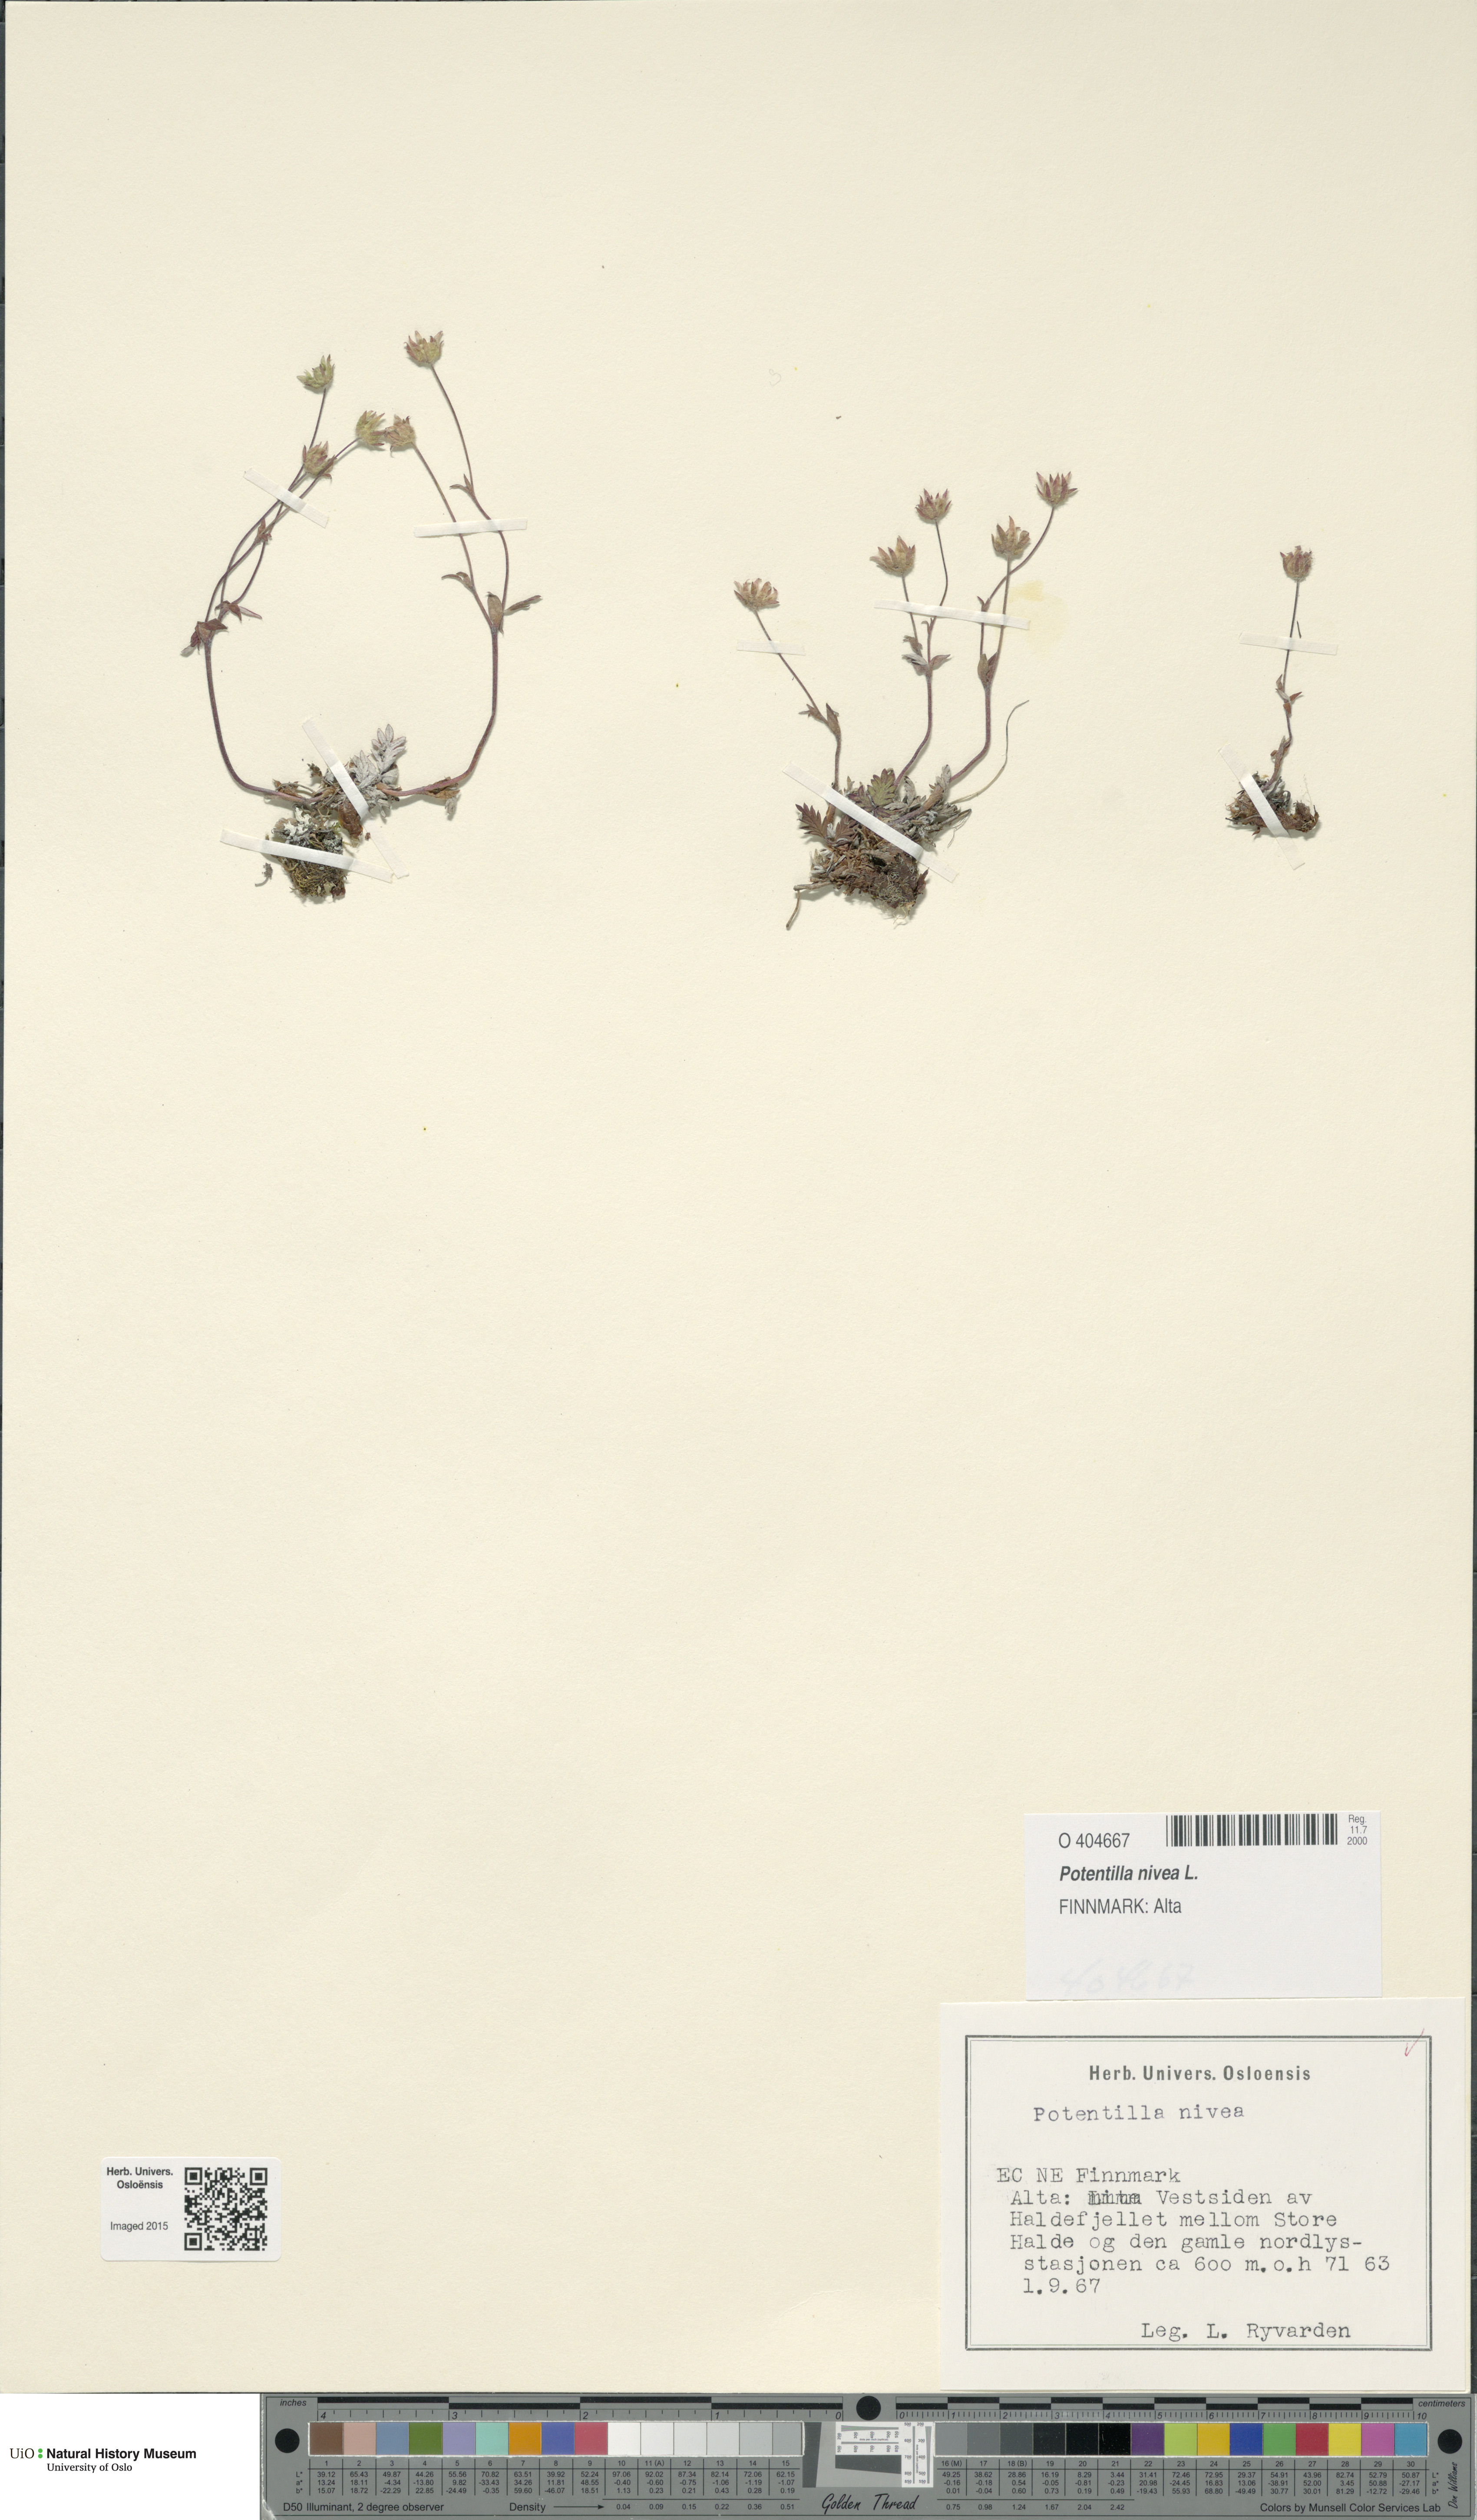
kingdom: Plantae
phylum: Tracheophyta
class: Magnoliopsida
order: Rosales
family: Rosaceae
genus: Potentilla
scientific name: Potentilla arenosa
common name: Bluff cinquefoil
